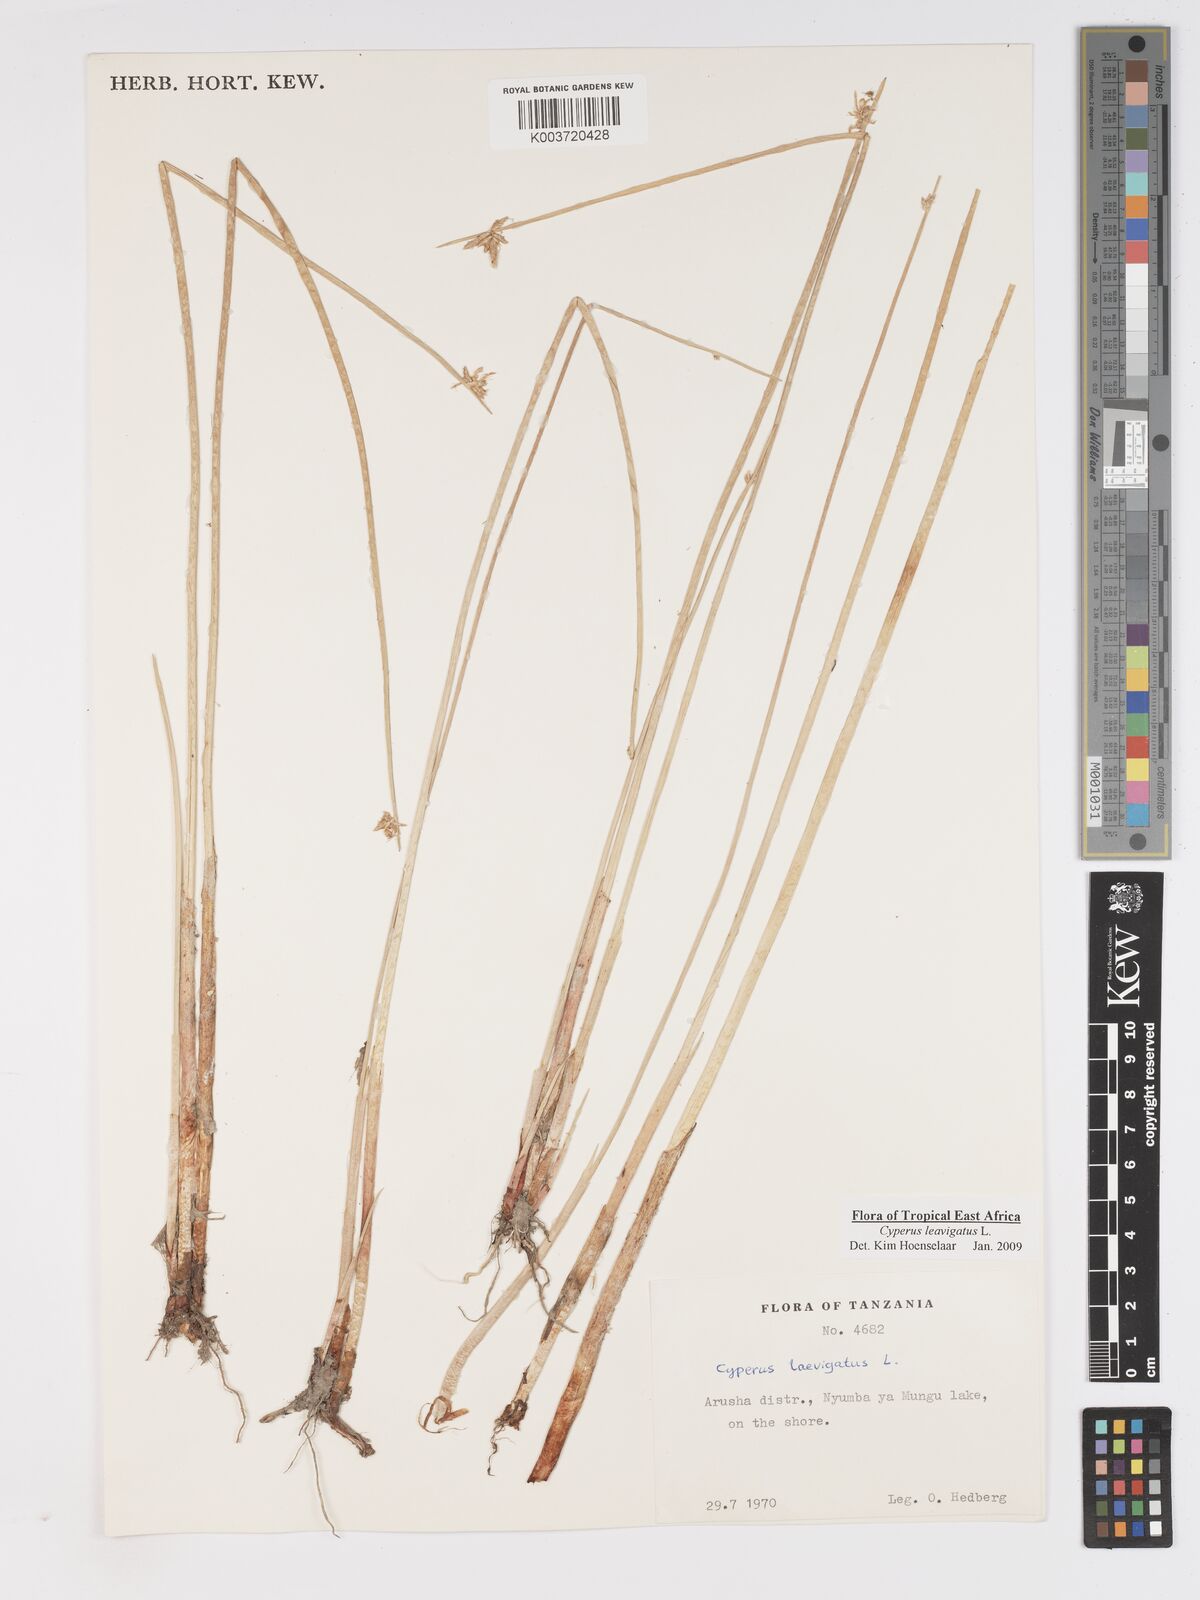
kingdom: Plantae
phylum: Tracheophyta
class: Liliopsida
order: Poales
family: Cyperaceae
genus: Cyperus
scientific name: Cyperus laevigatus
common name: Smooth flat sedge
